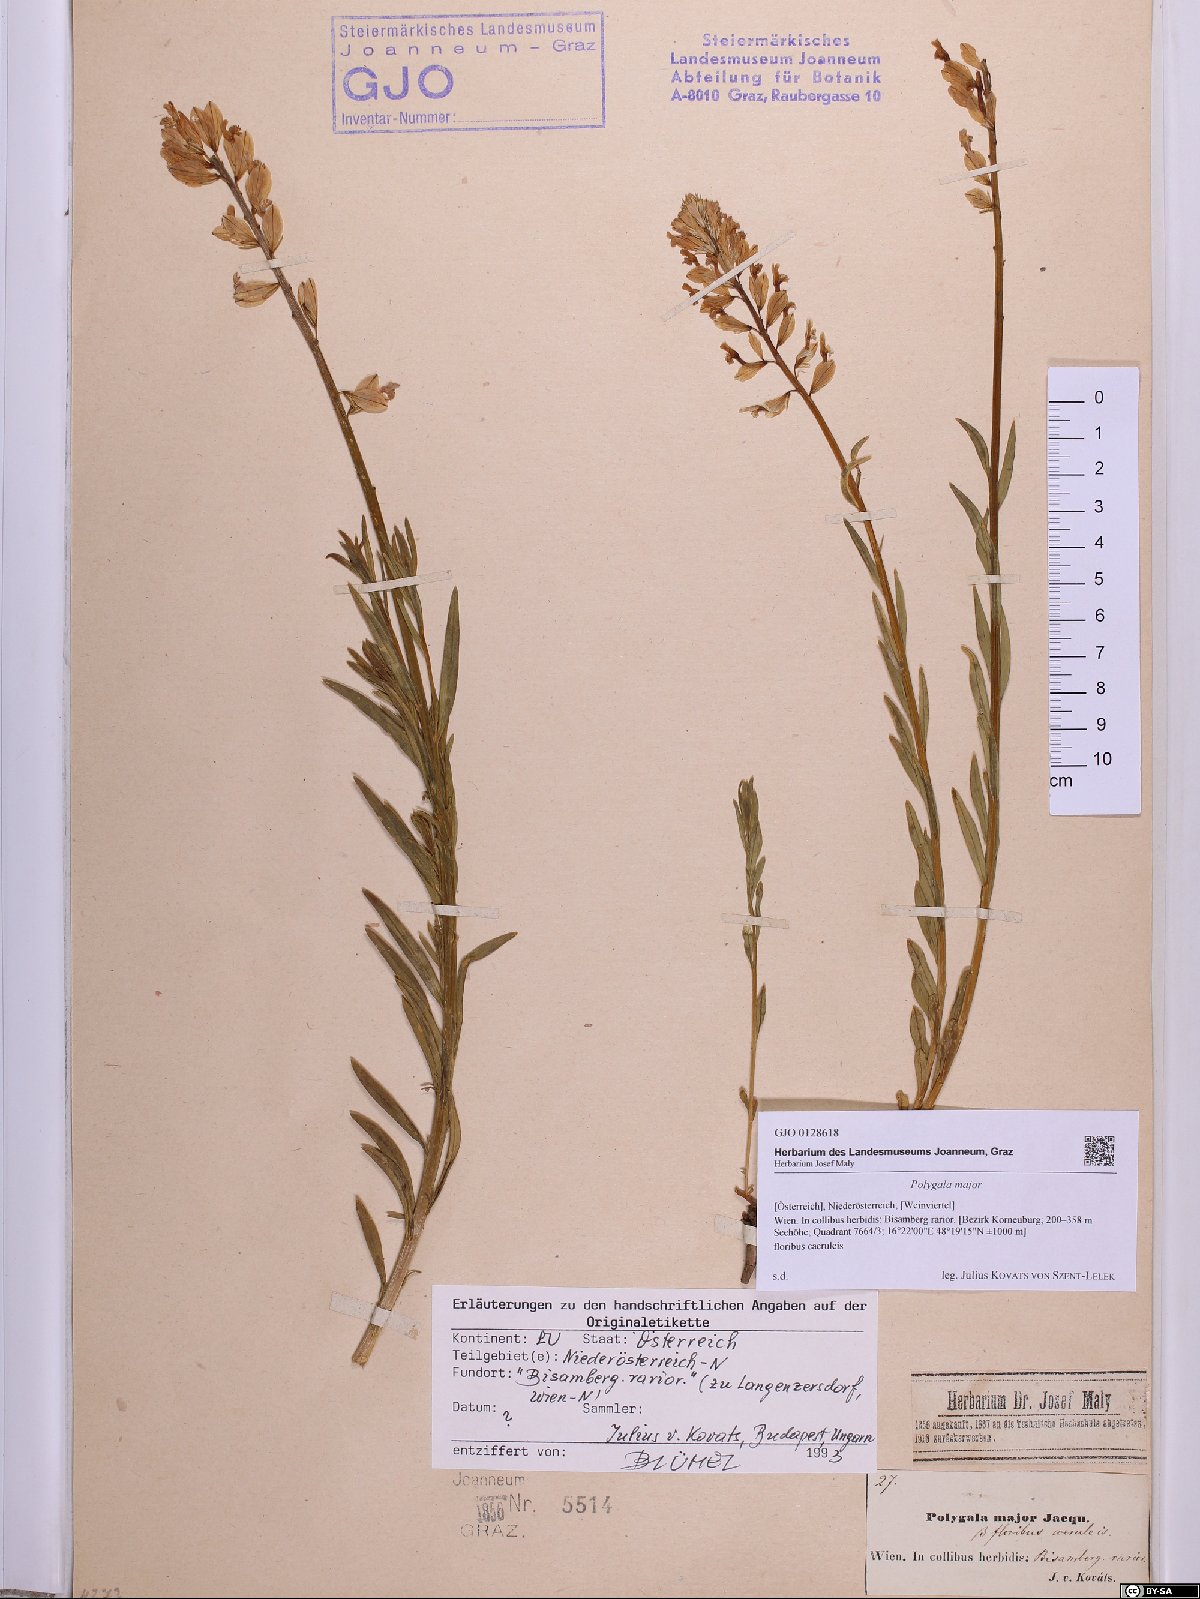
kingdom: Plantae
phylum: Tracheophyta
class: Magnoliopsida
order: Fabales
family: Polygalaceae
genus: Polygala
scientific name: Polygala major
